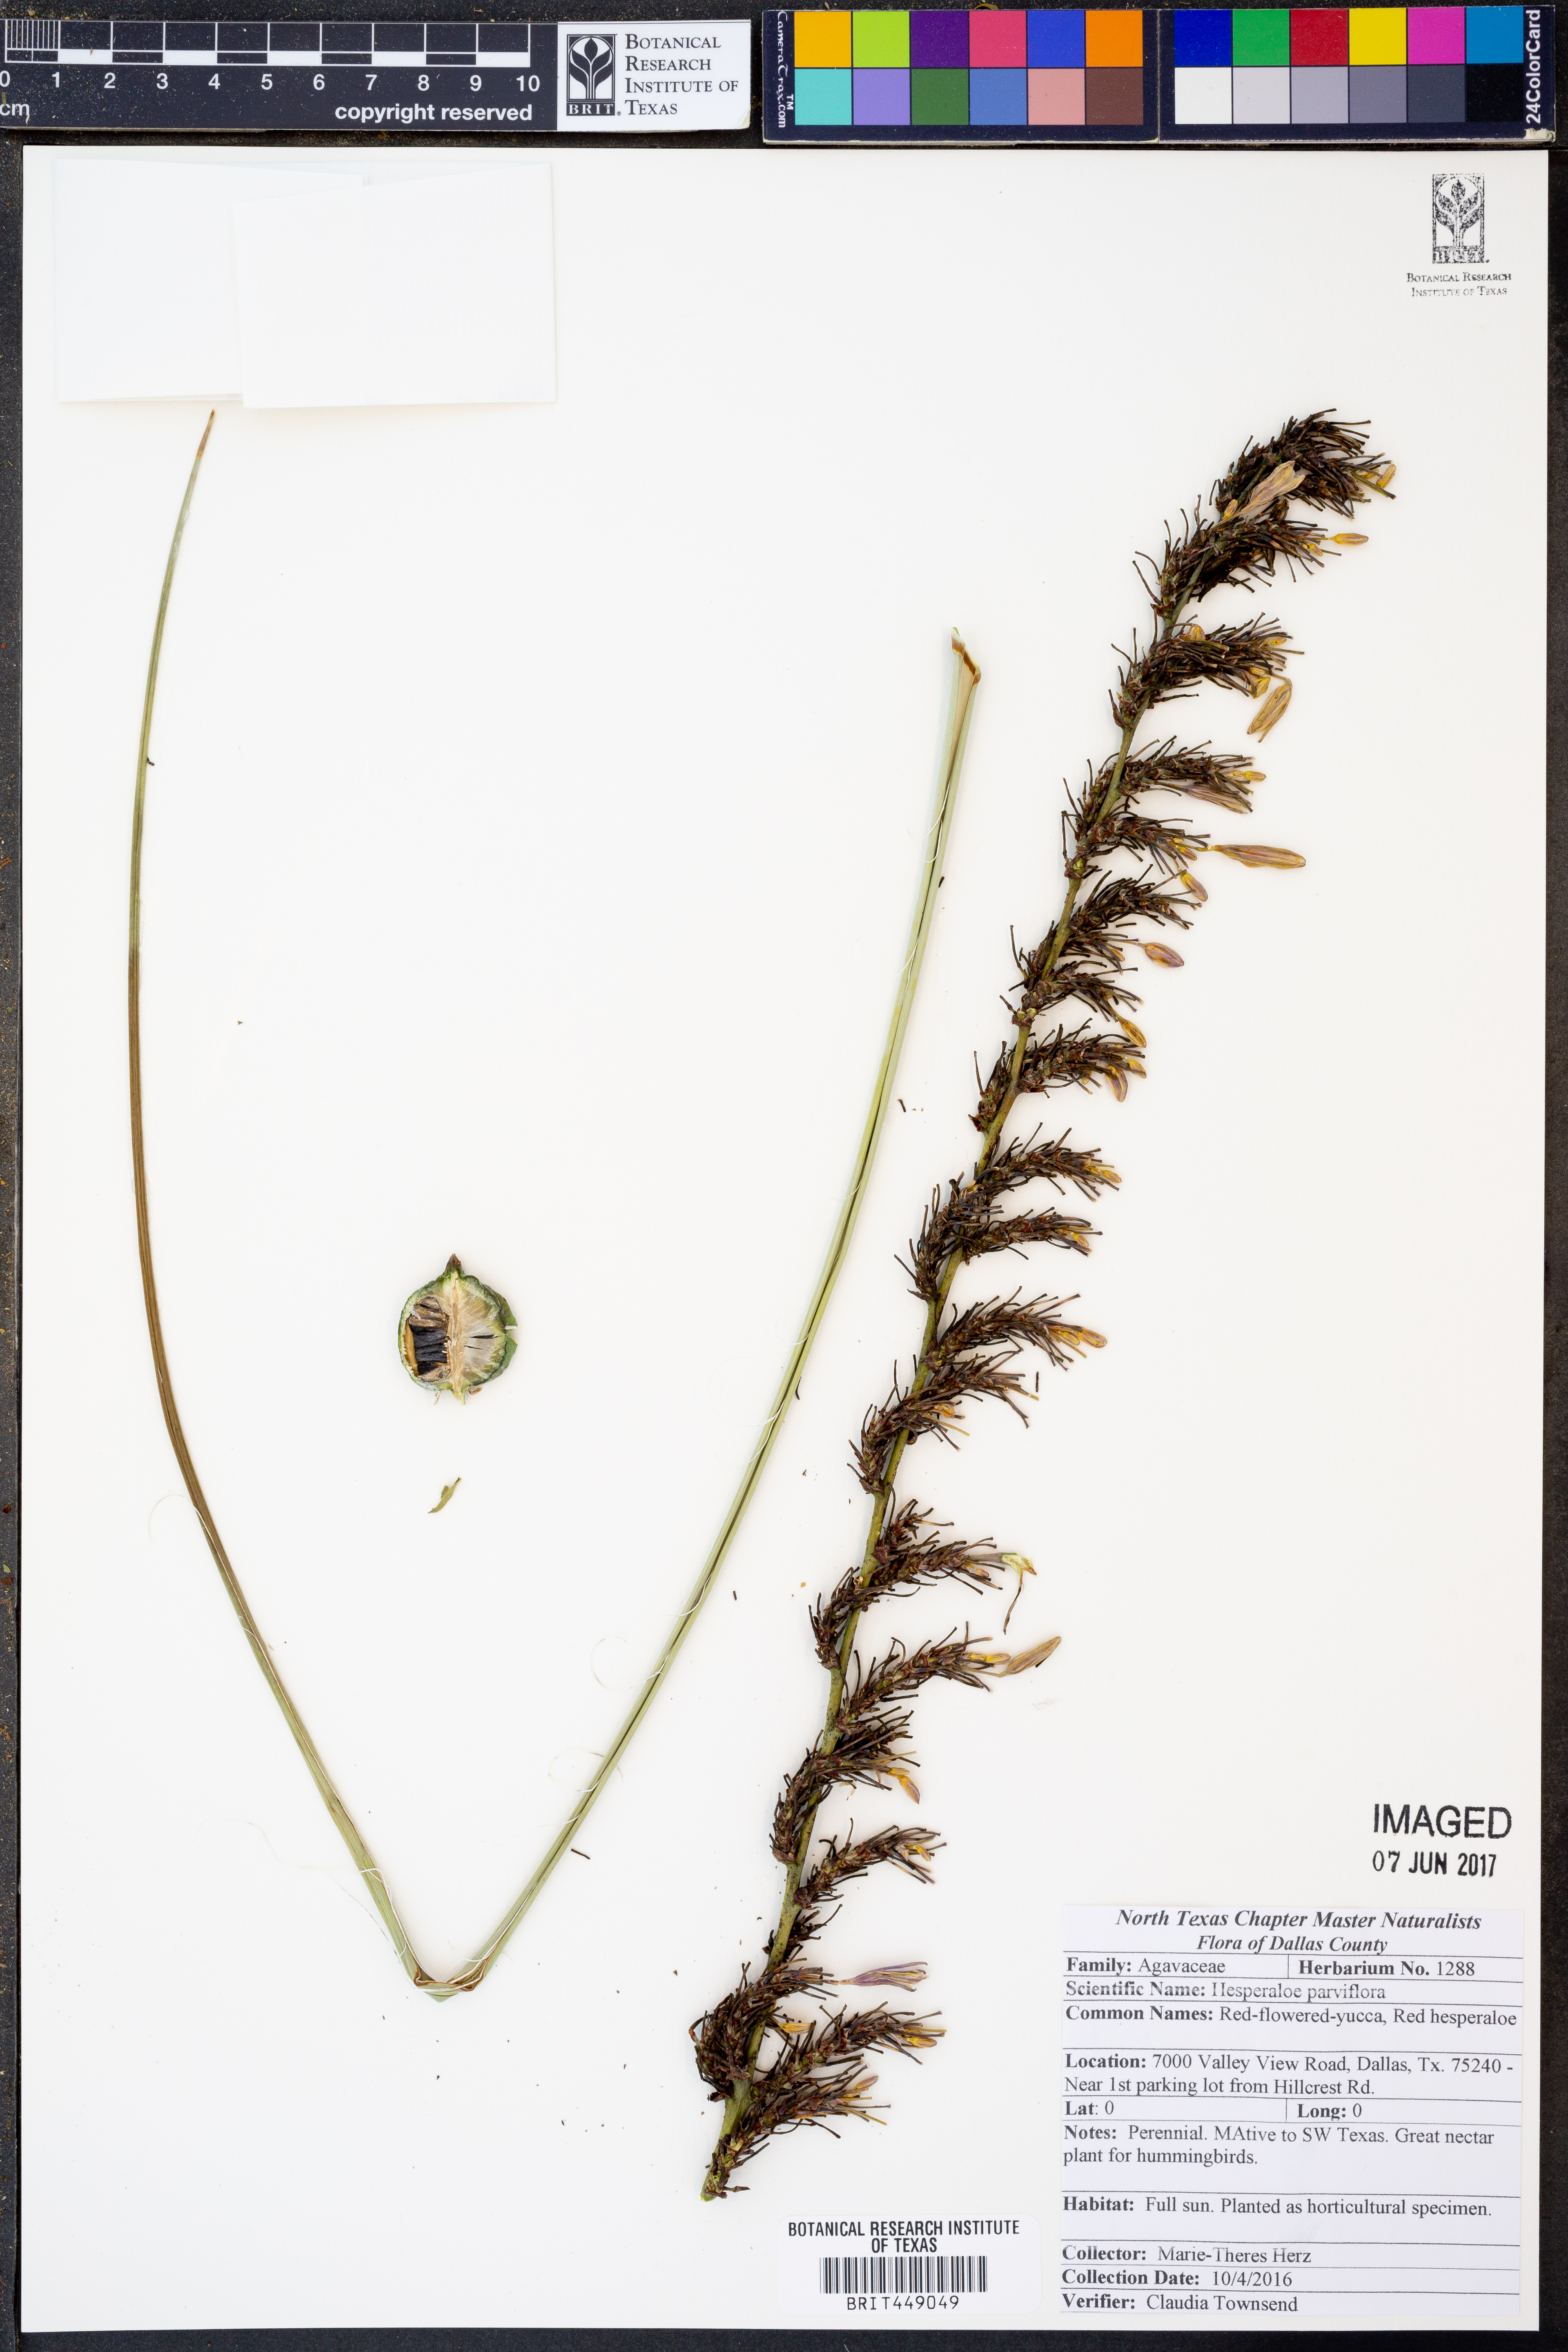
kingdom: Plantae
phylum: Tracheophyta
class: Liliopsida
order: Asparagales
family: Asparagaceae
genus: Hesperaloe
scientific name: Hesperaloe parviflora
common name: Red hesperaloe
